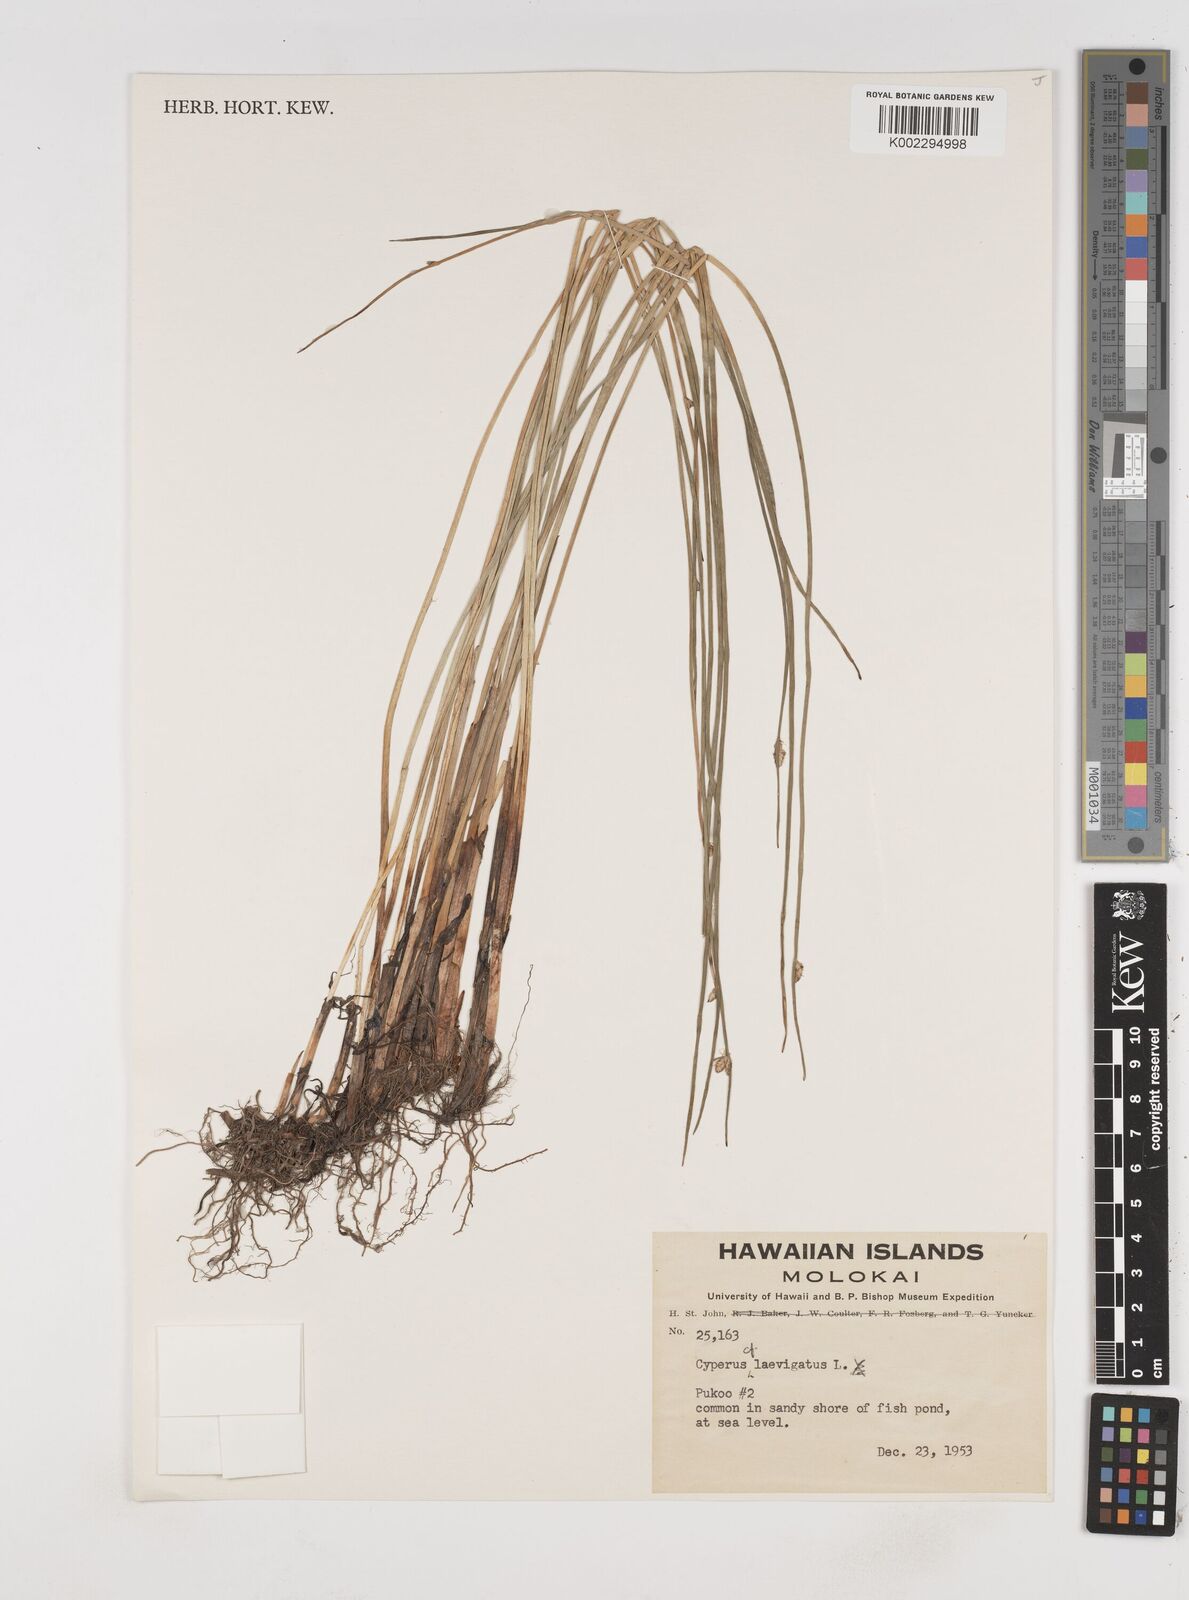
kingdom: Plantae
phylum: Tracheophyta
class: Liliopsida
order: Poales
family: Cyperaceae
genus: Cyperus
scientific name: Cyperus laevigatus
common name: Smooth flat sedge
